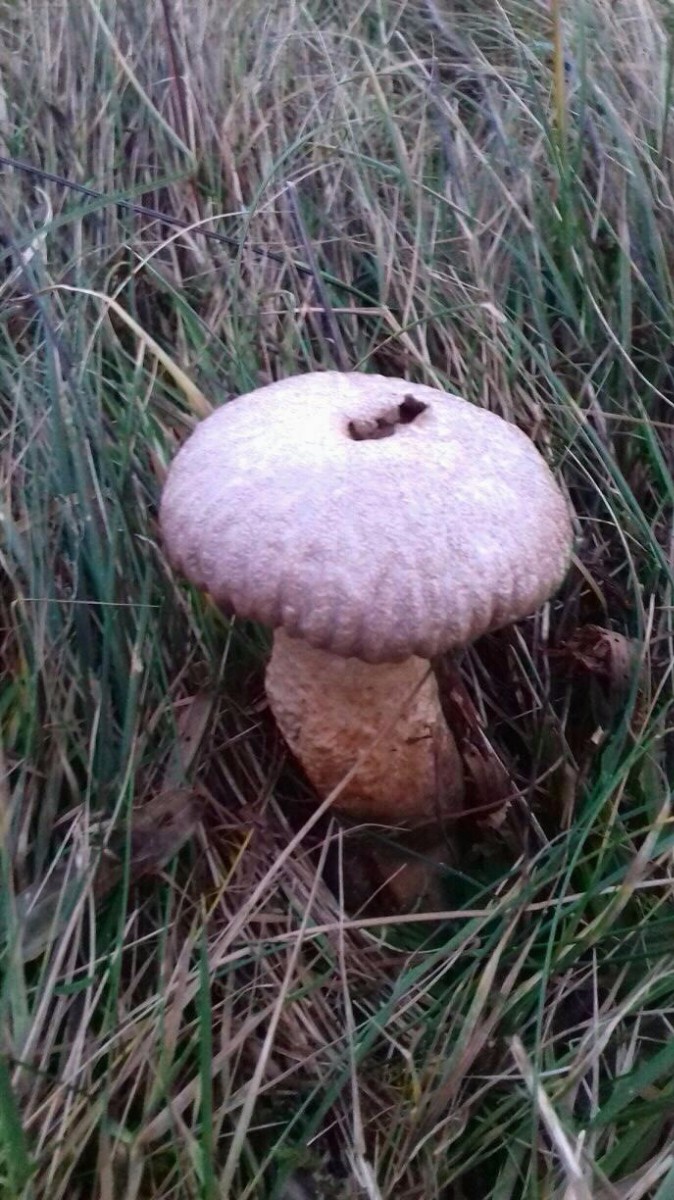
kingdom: Fungi
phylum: Basidiomycota
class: Agaricomycetes
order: Agaricales
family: Agaricaceae
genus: Lycoperdon
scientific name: Lycoperdon
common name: støvbold
